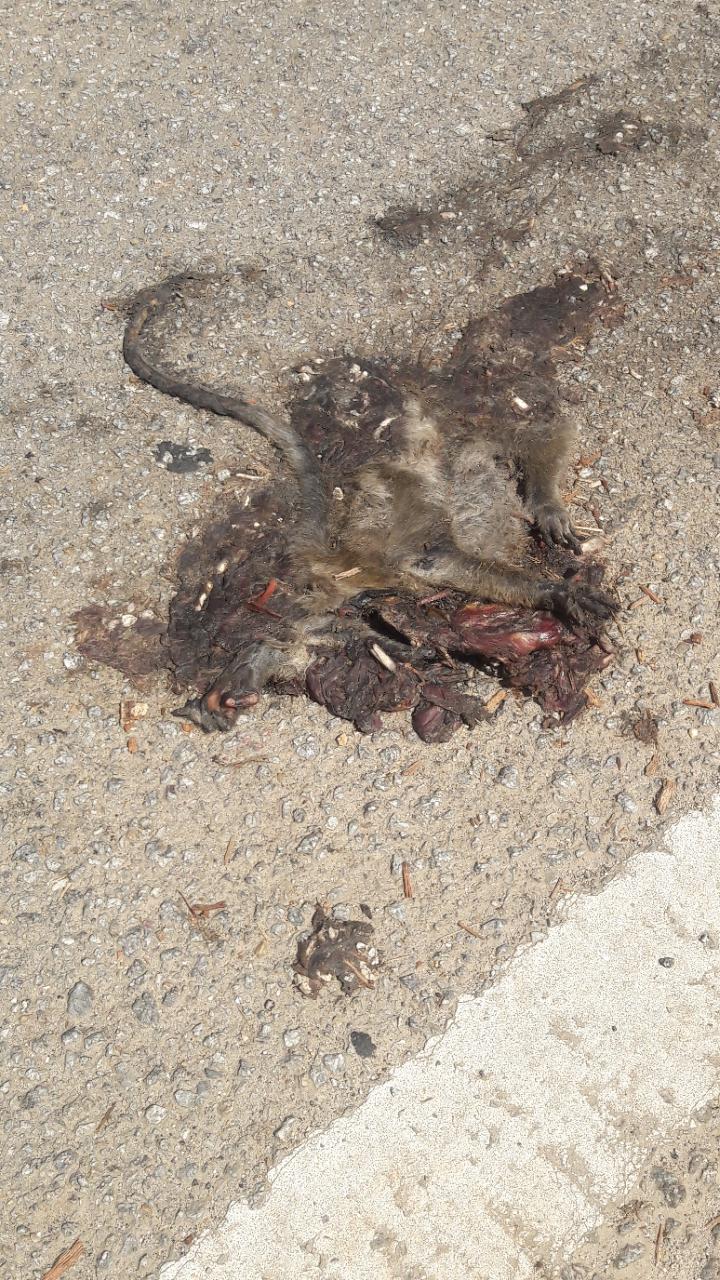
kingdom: Animalia
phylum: Chordata
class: Mammalia
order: Primates
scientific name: Primates
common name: Primates
